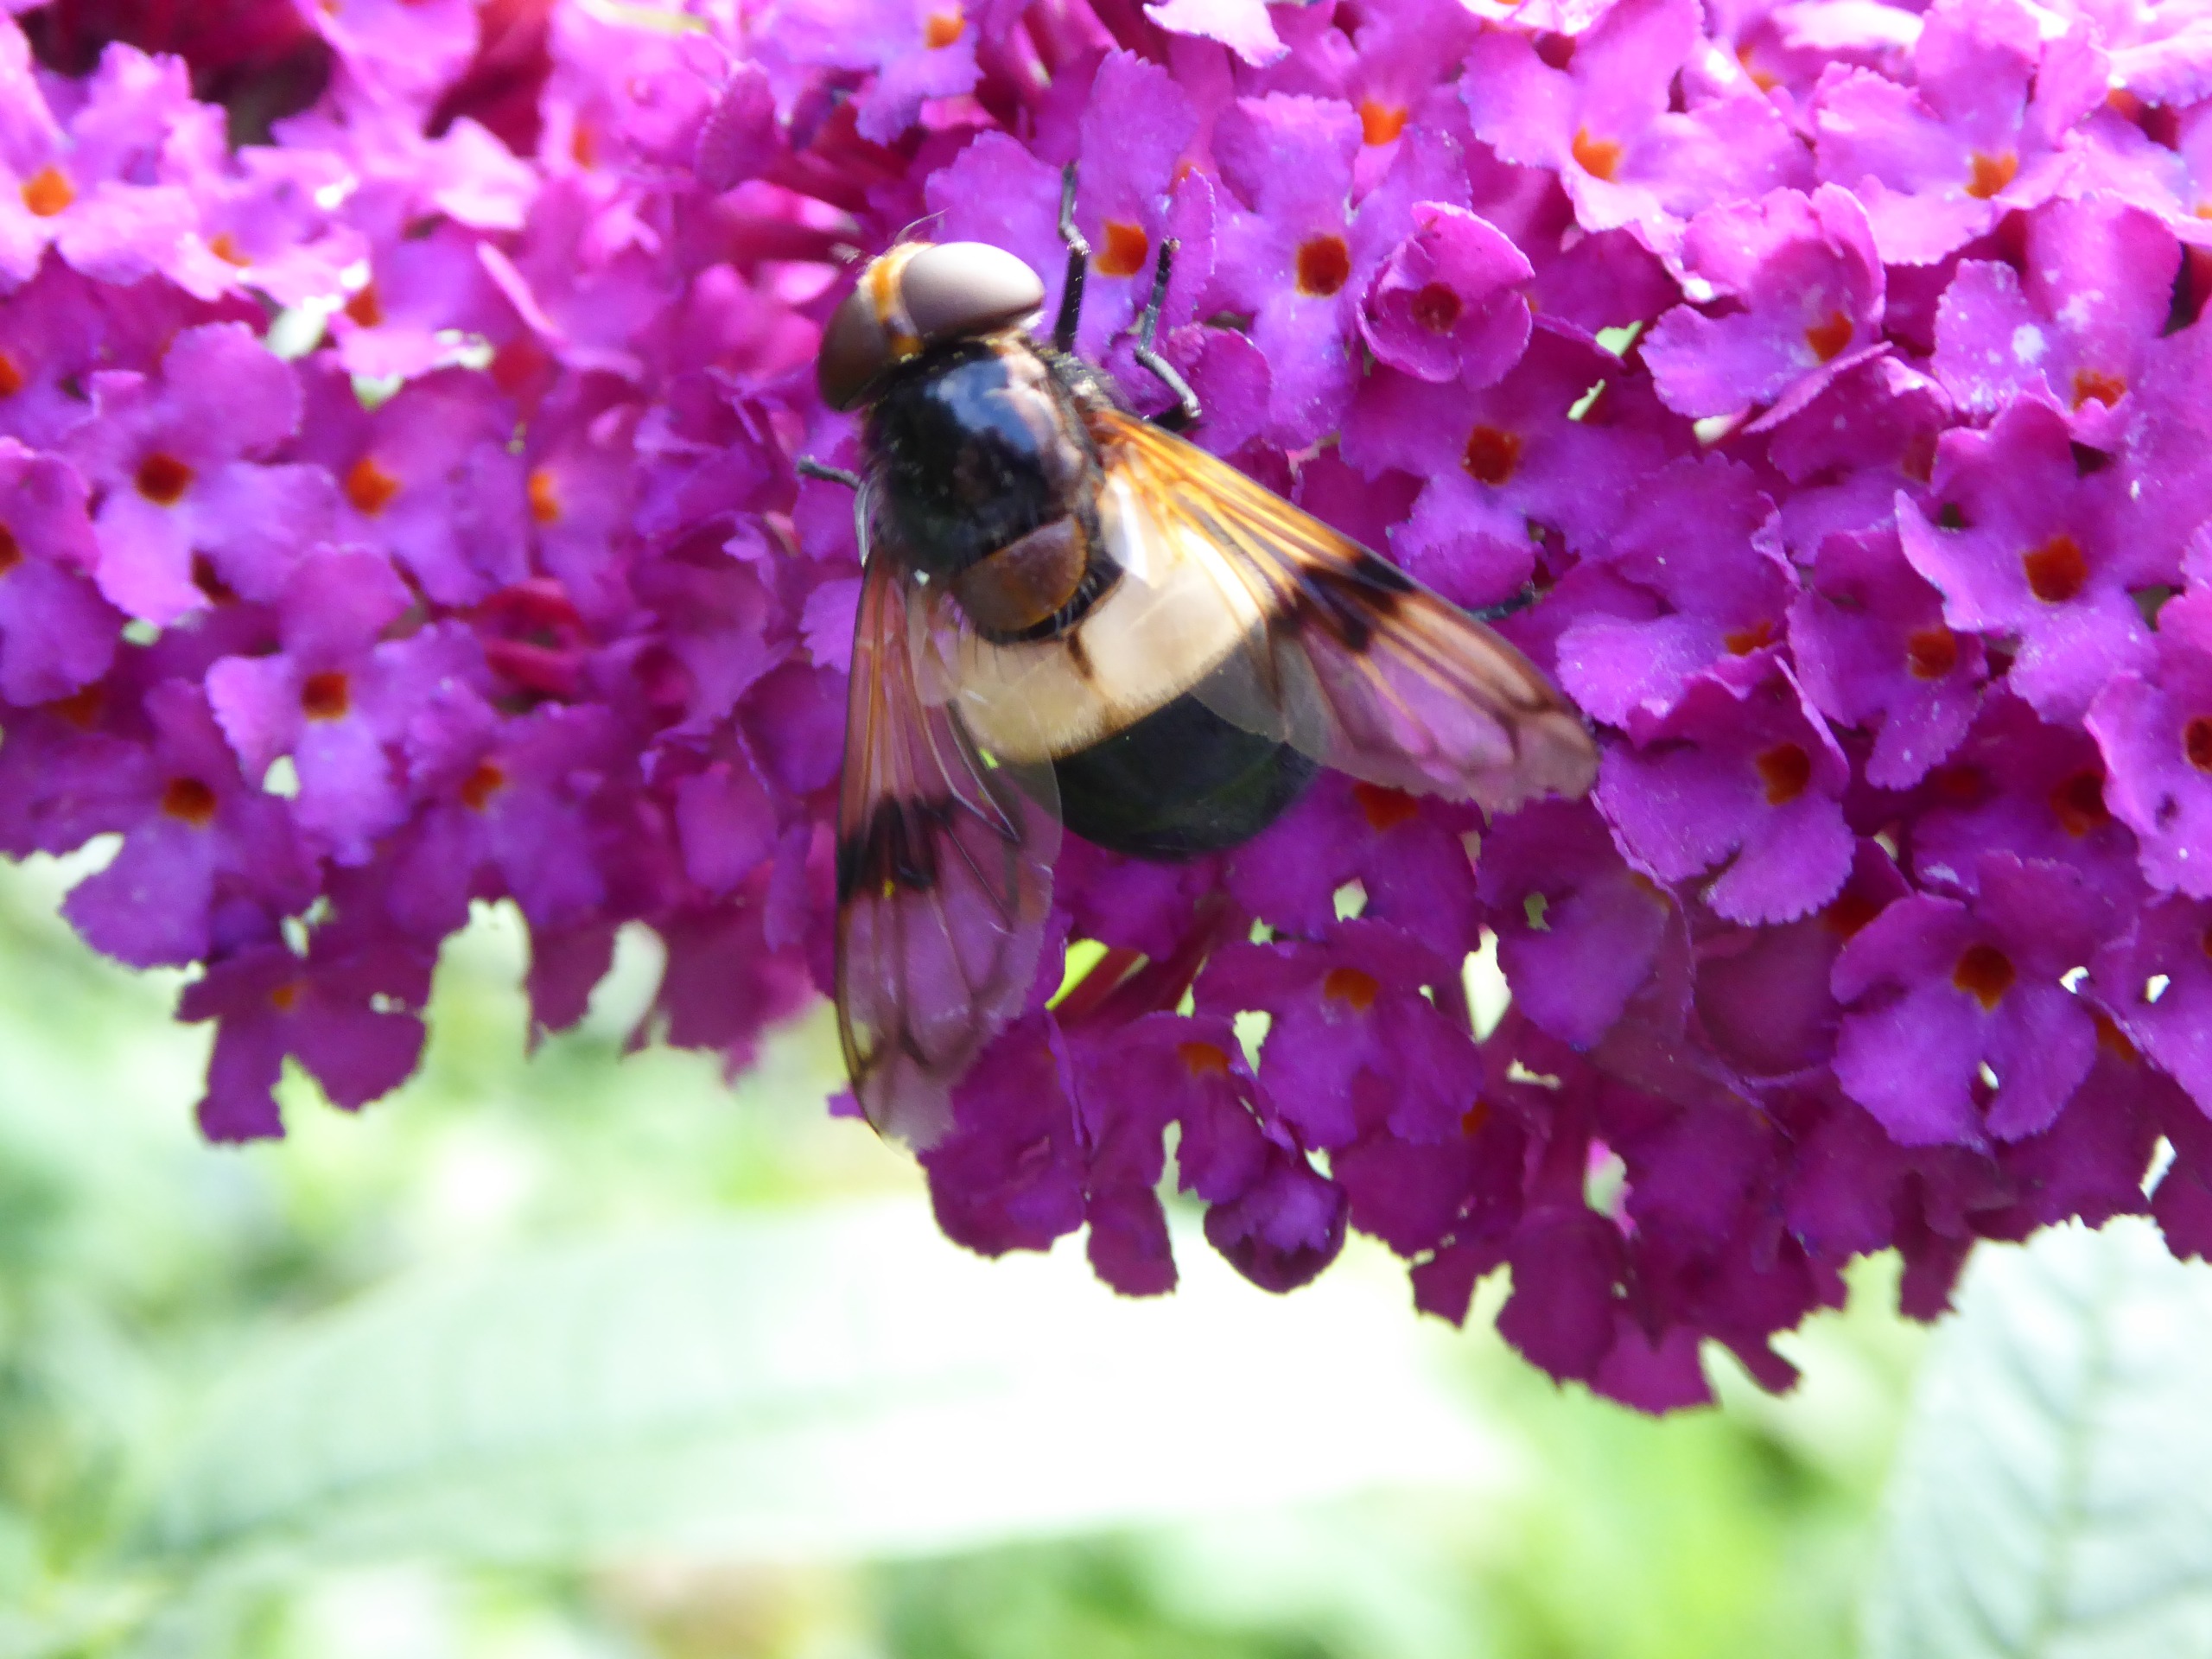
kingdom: Animalia
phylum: Arthropoda
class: Insecta
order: Diptera
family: Syrphidae
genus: Volucella
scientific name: Volucella pellucens
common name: Hvidbåndet humlesvirreflue
